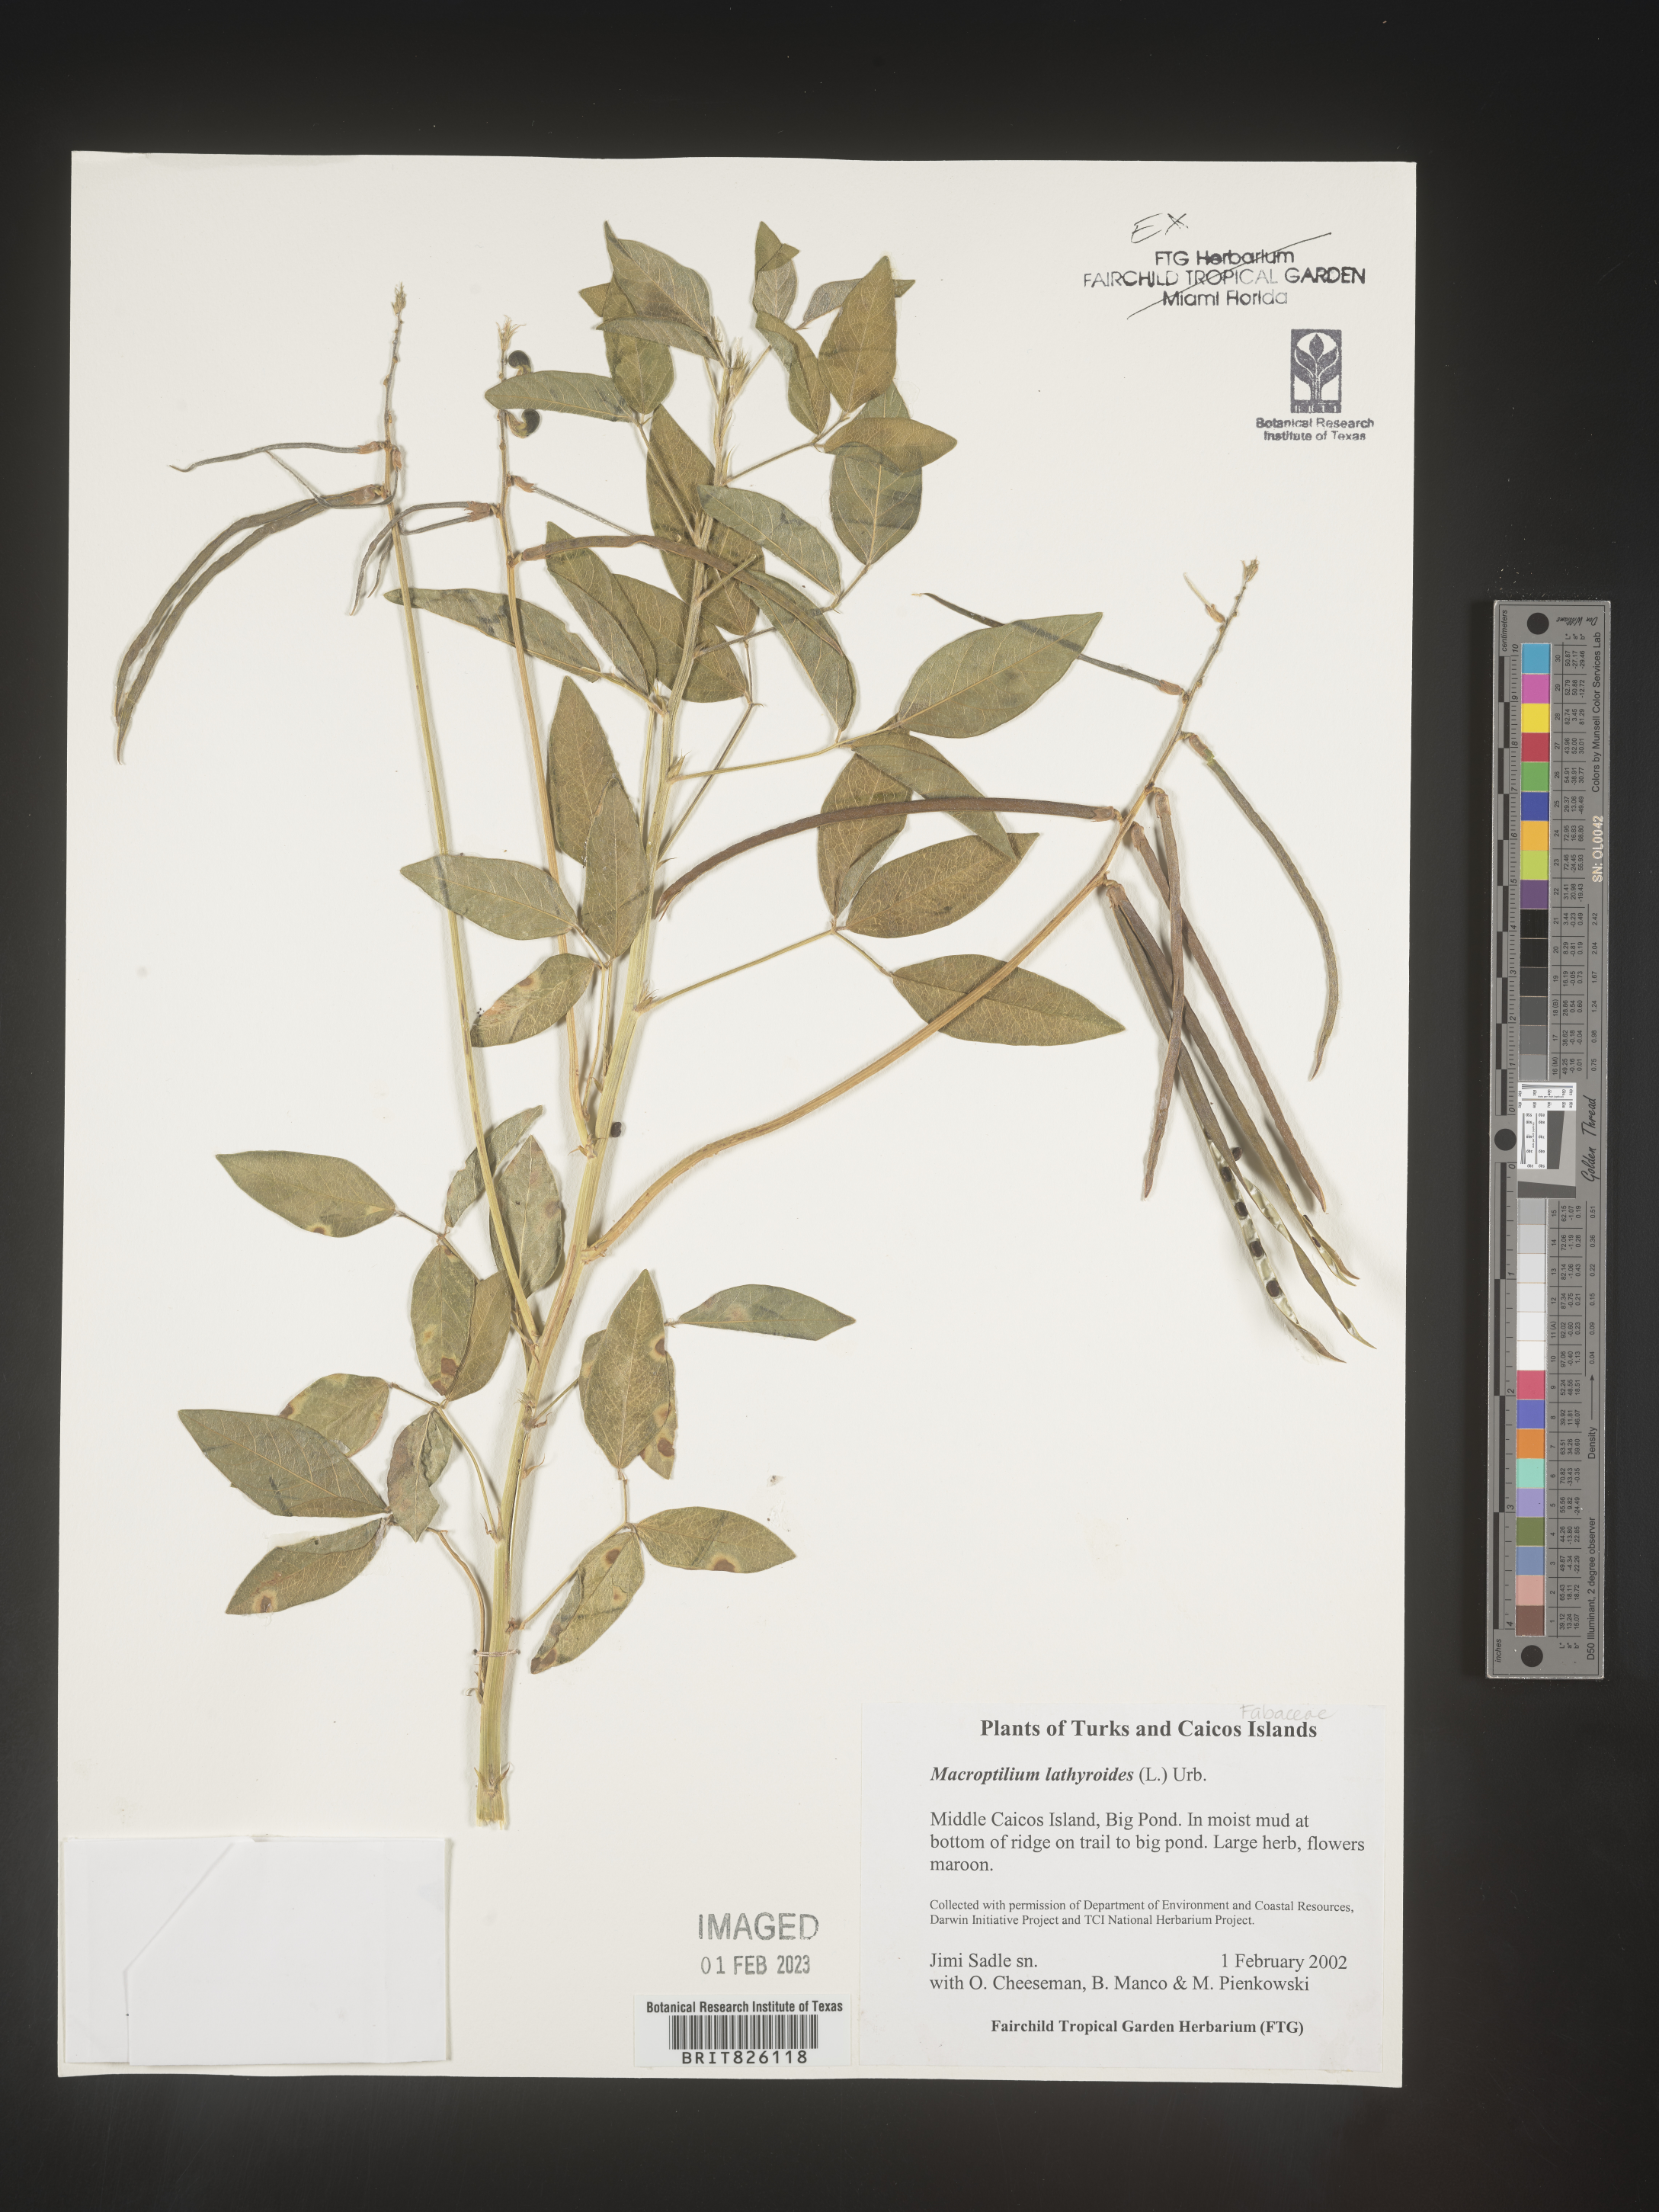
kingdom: Plantae
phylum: Tracheophyta
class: Magnoliopsida
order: Fabales
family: Fabaceae
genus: Macroptilium
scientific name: Macroptilium
